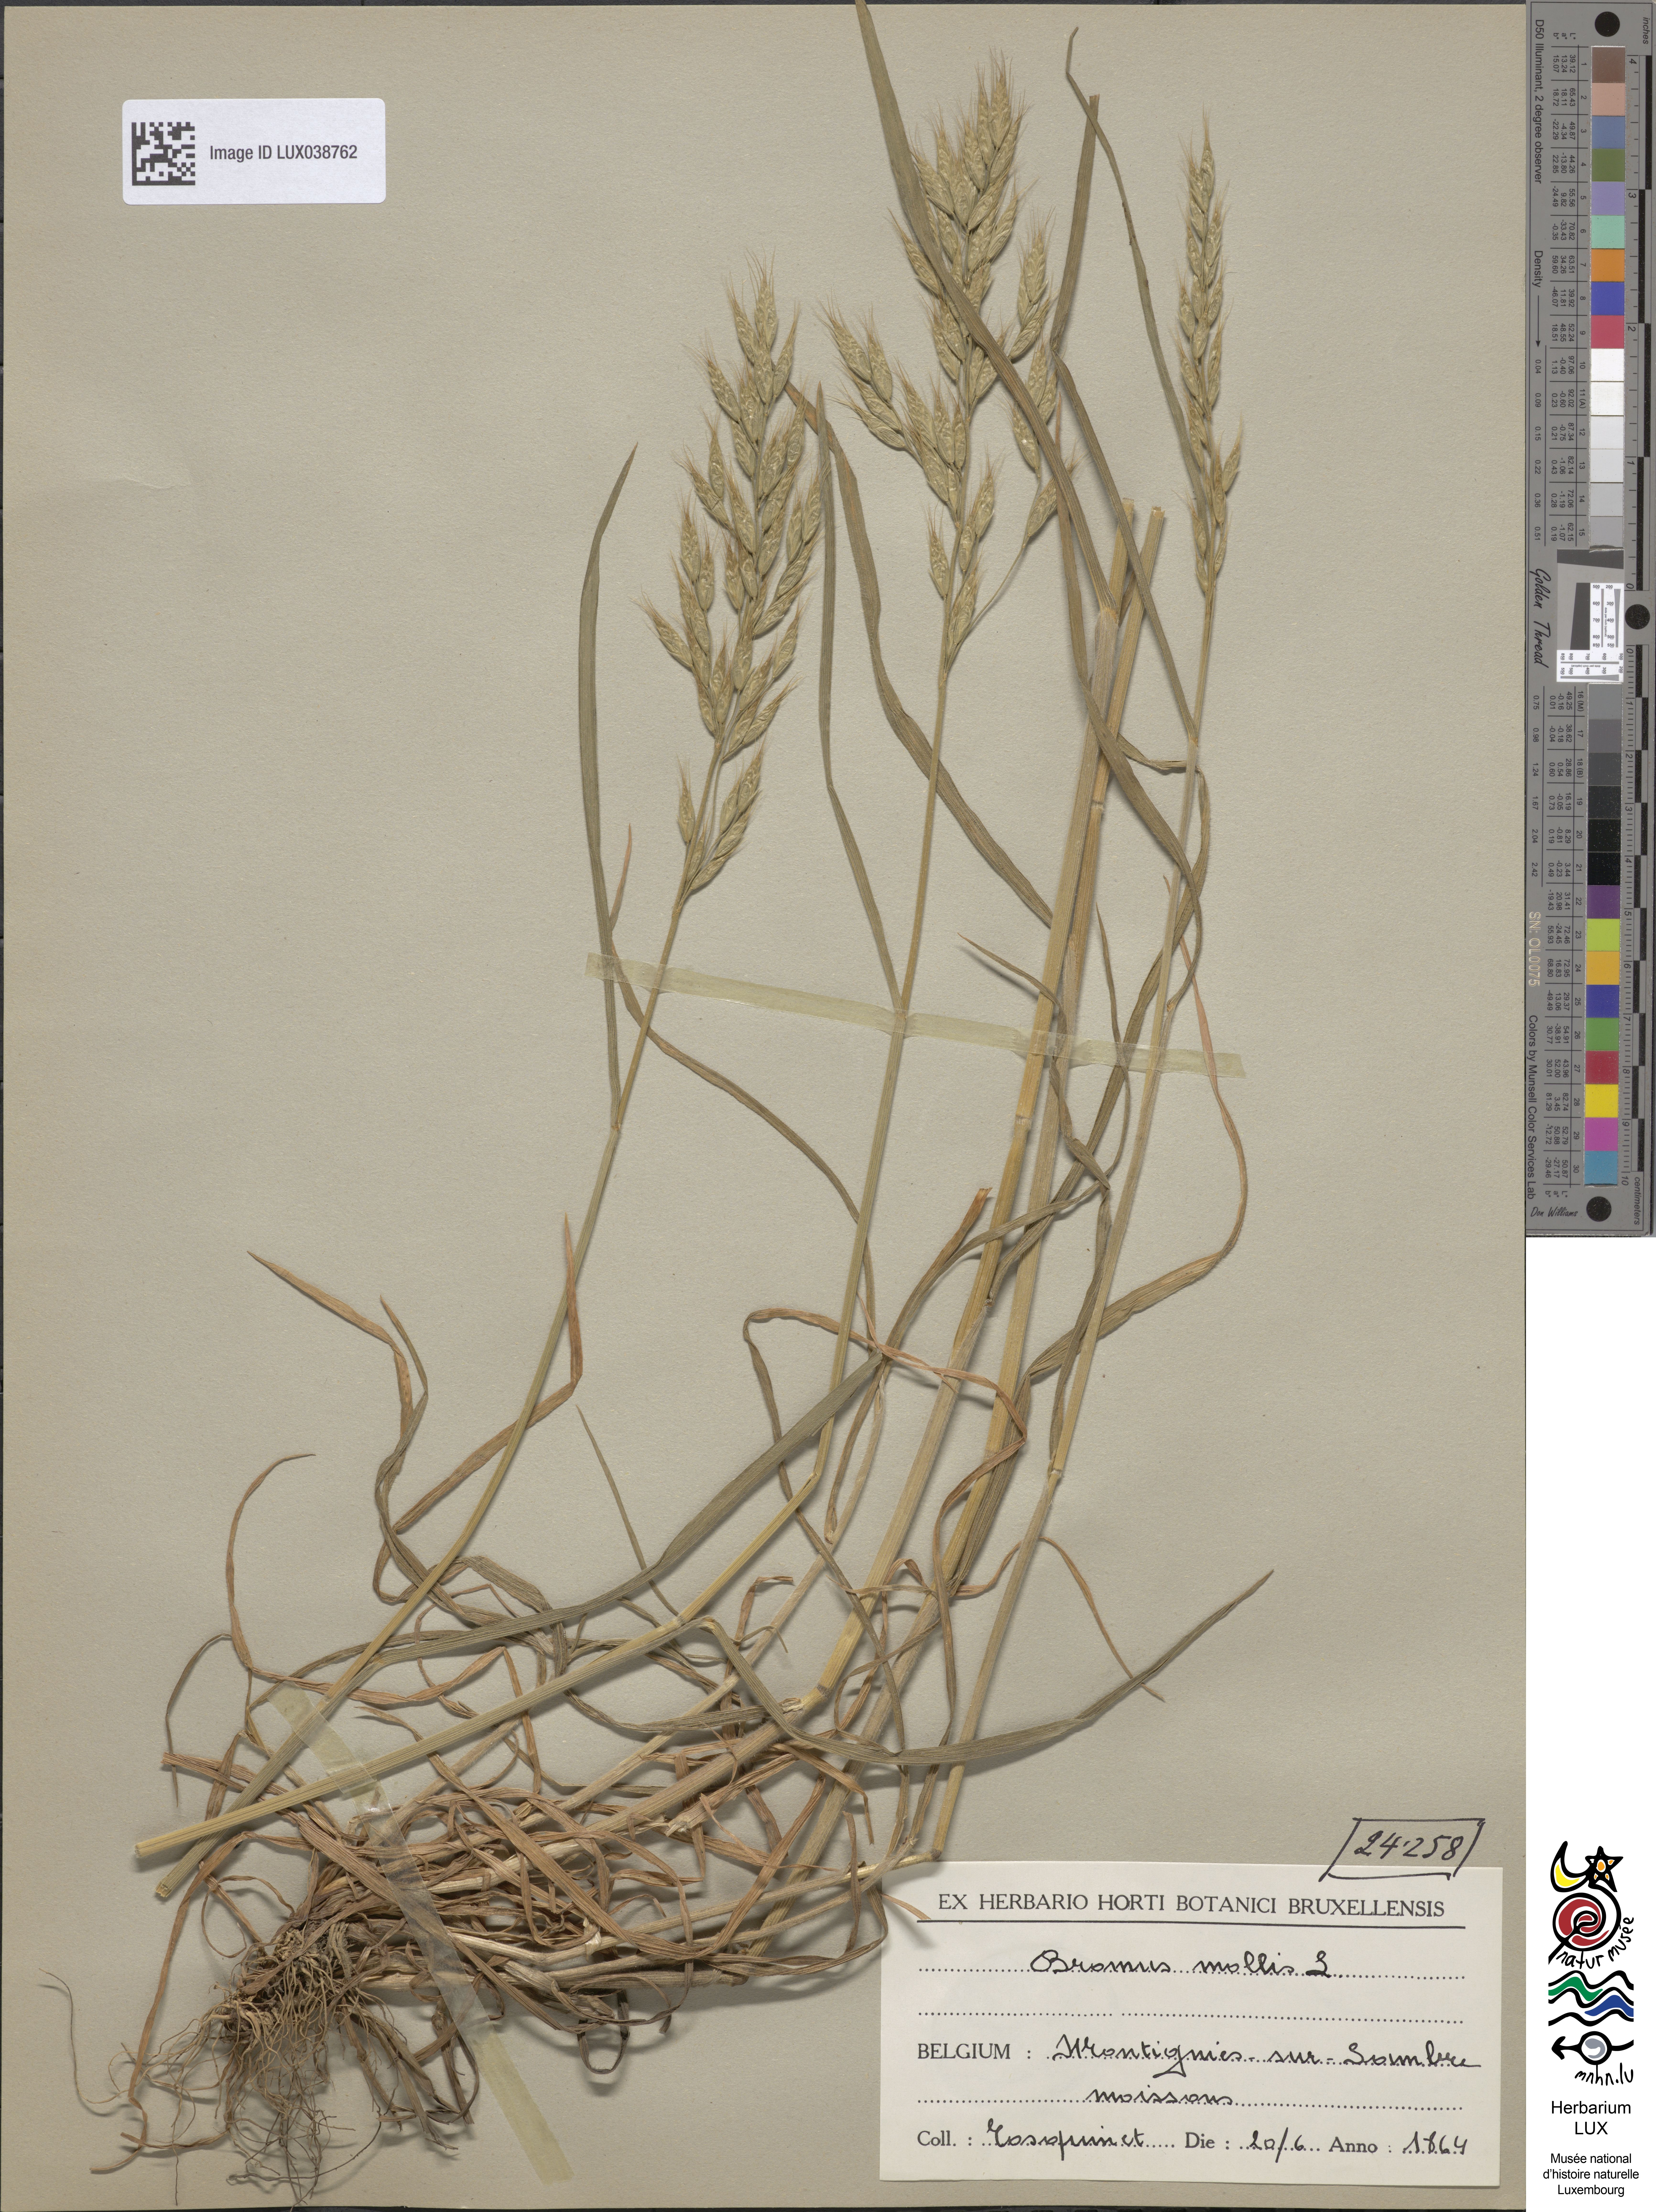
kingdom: Plantae
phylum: Tracheophyta
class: Liliopsida
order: Poales
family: Poaceae
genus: Bromus
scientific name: Bromus hordeaceus
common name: Soft brome
